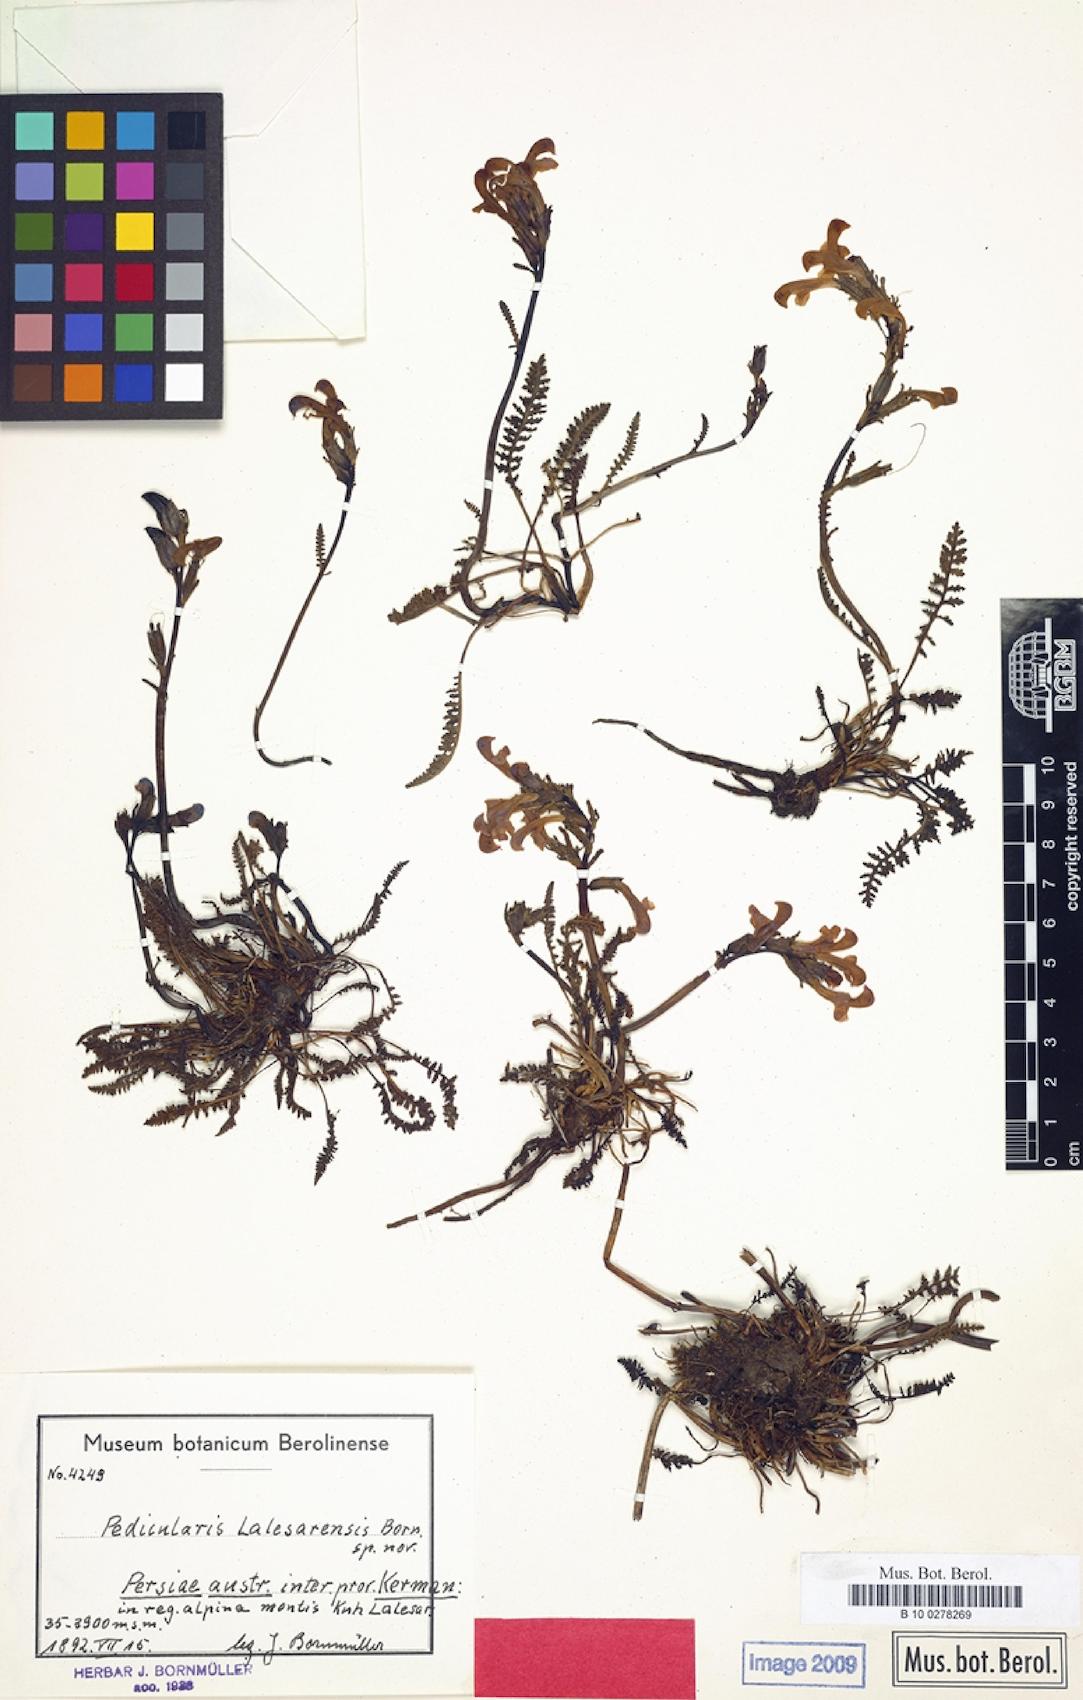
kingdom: Plantae
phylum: Tracheophyta
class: Magnoliopsida
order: Lamiales
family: Orobanchaceae
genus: Pedicularis
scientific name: Pedicularis cabulica
